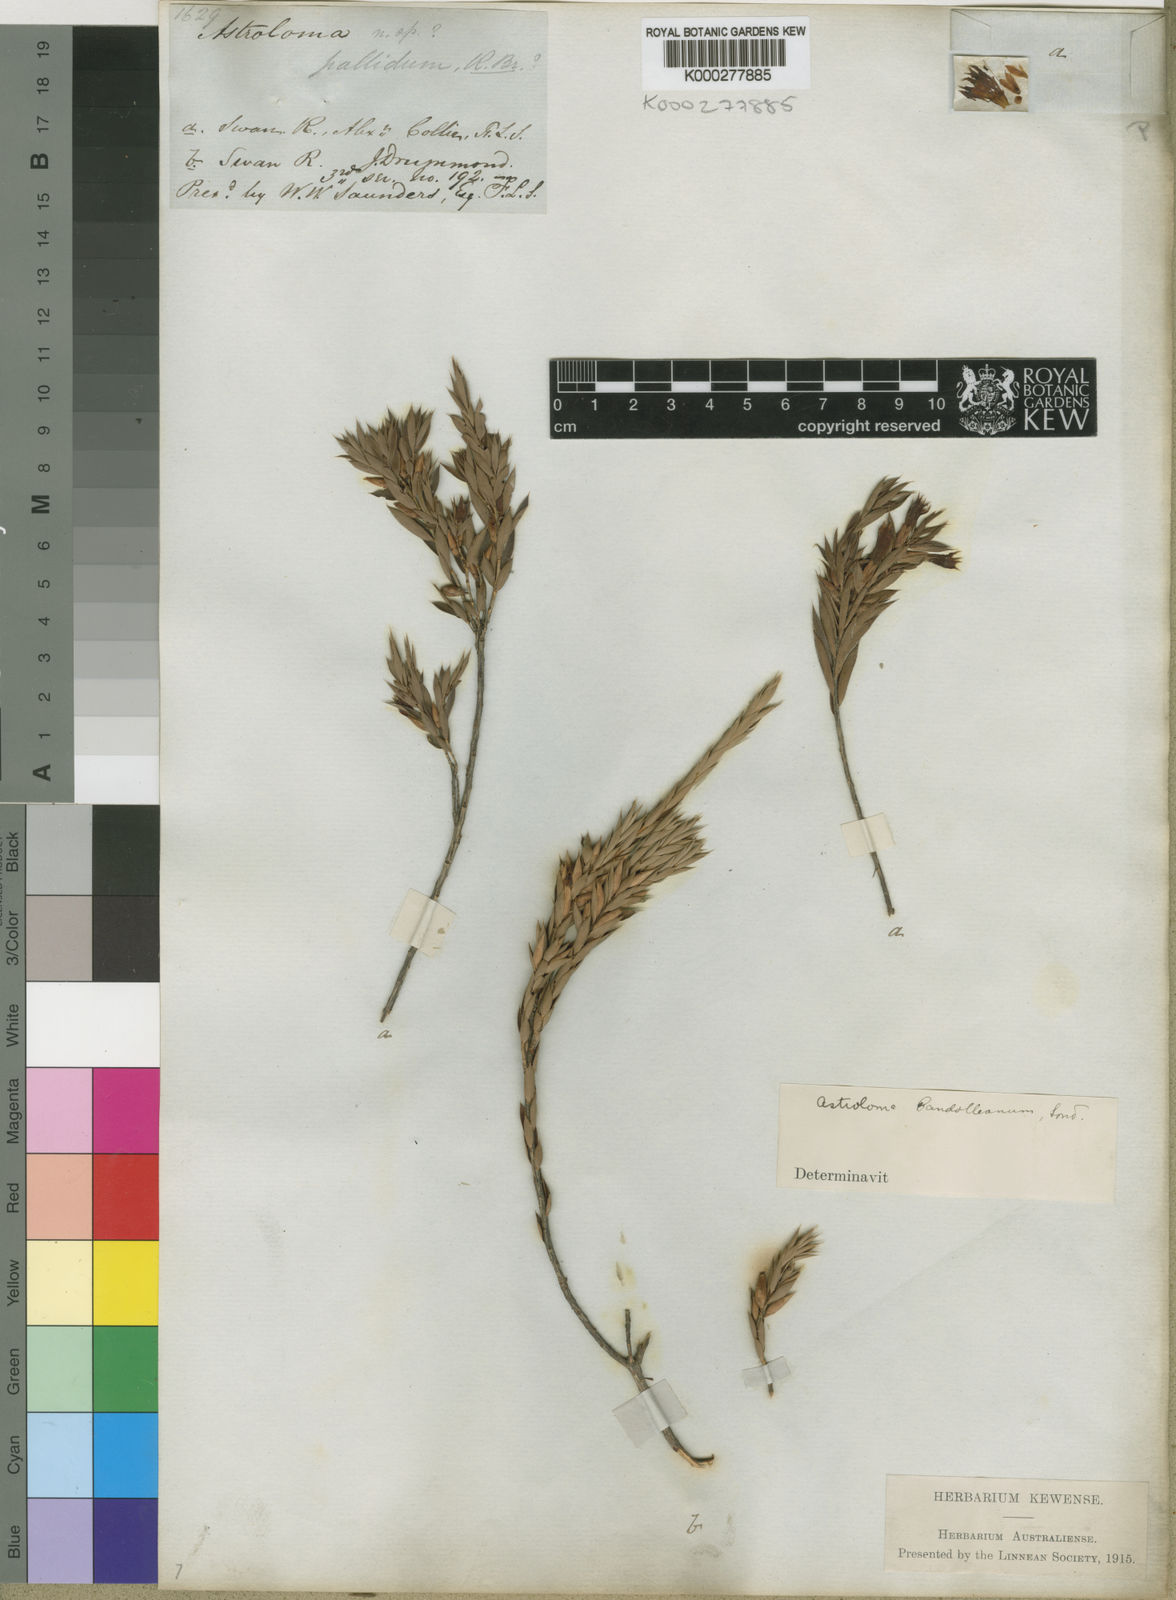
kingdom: Plantae
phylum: Tracheophyta
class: Magnoliopsida
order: Ericales
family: Ericaceae
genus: Styphelia
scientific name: Styphelia serratifolia
